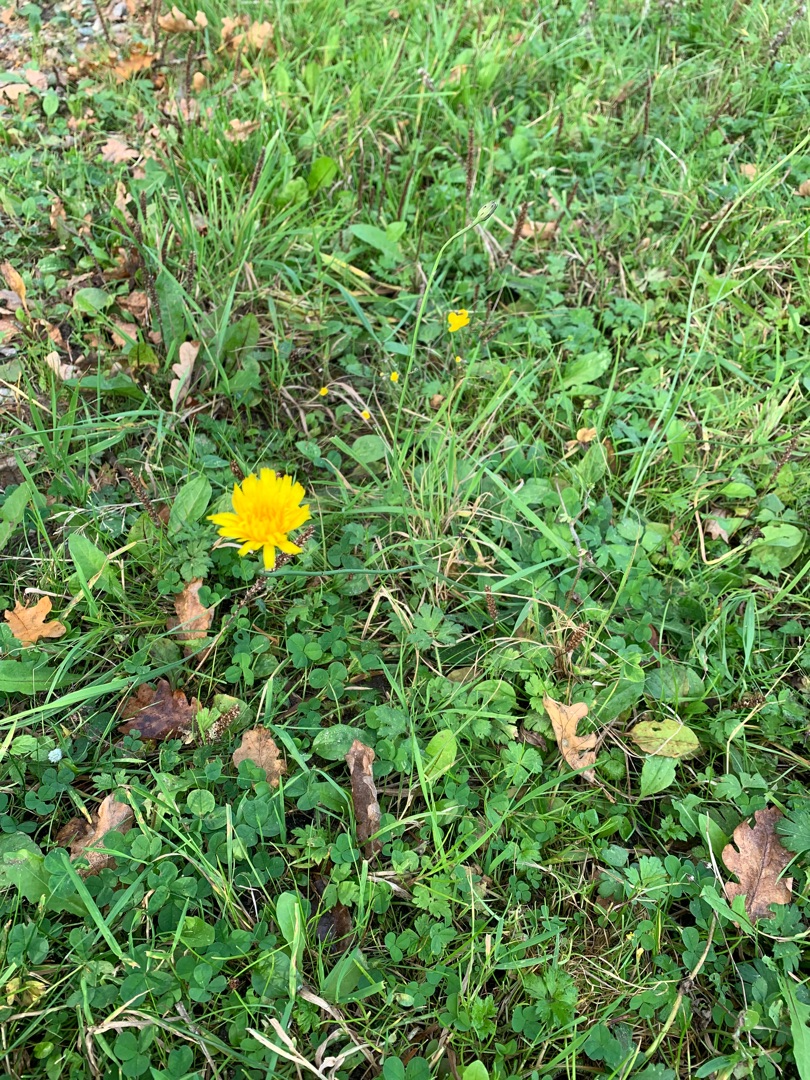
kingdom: Plantae
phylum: Tracheophyta
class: Magnoliopsida
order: Asterales
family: Asteraceae
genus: Hypochaeris
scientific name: Hypochaeris radicata
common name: Almindelig kongepen
